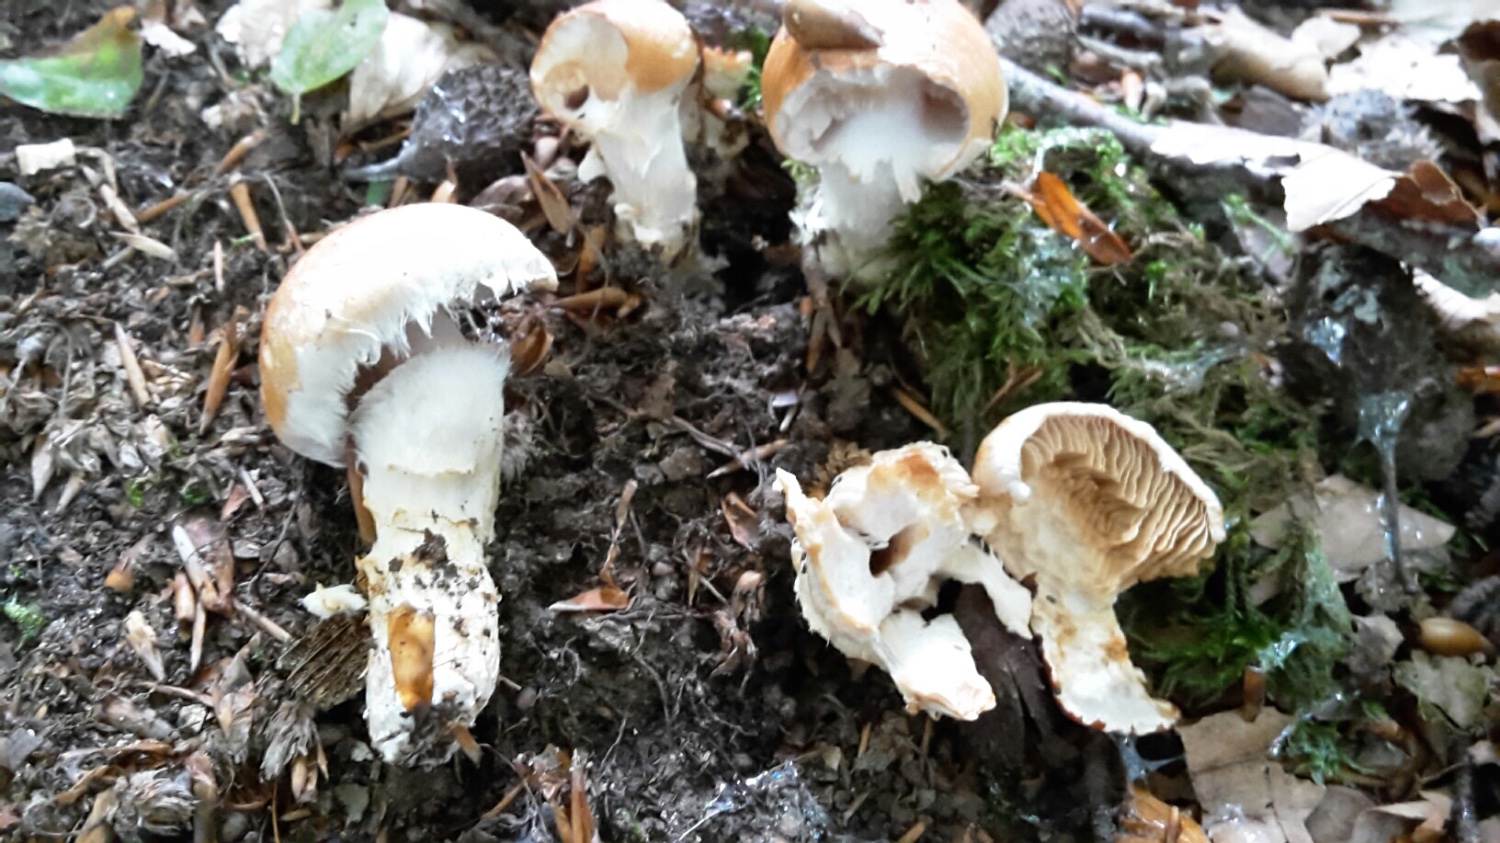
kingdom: Fungi
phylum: Basidiomycota
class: Agaricomycetes
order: Agaricales
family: Cortinariaceae
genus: Phlegmacium
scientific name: Phlegmacium vulpinum
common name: ringbæltet slørhat
